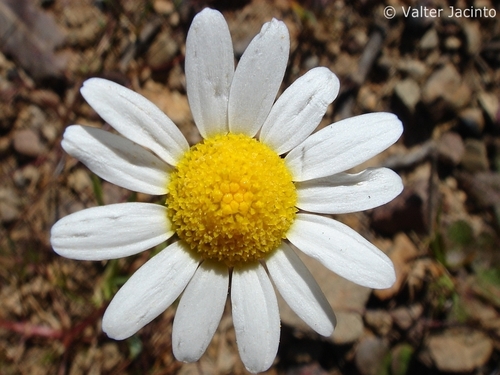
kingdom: Plantae
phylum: Tracheophyta
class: Magnoliopsida
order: Asterales
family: Asteraceae
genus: Anthemis
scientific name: Anthemis arvensis
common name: Corn chamomile
